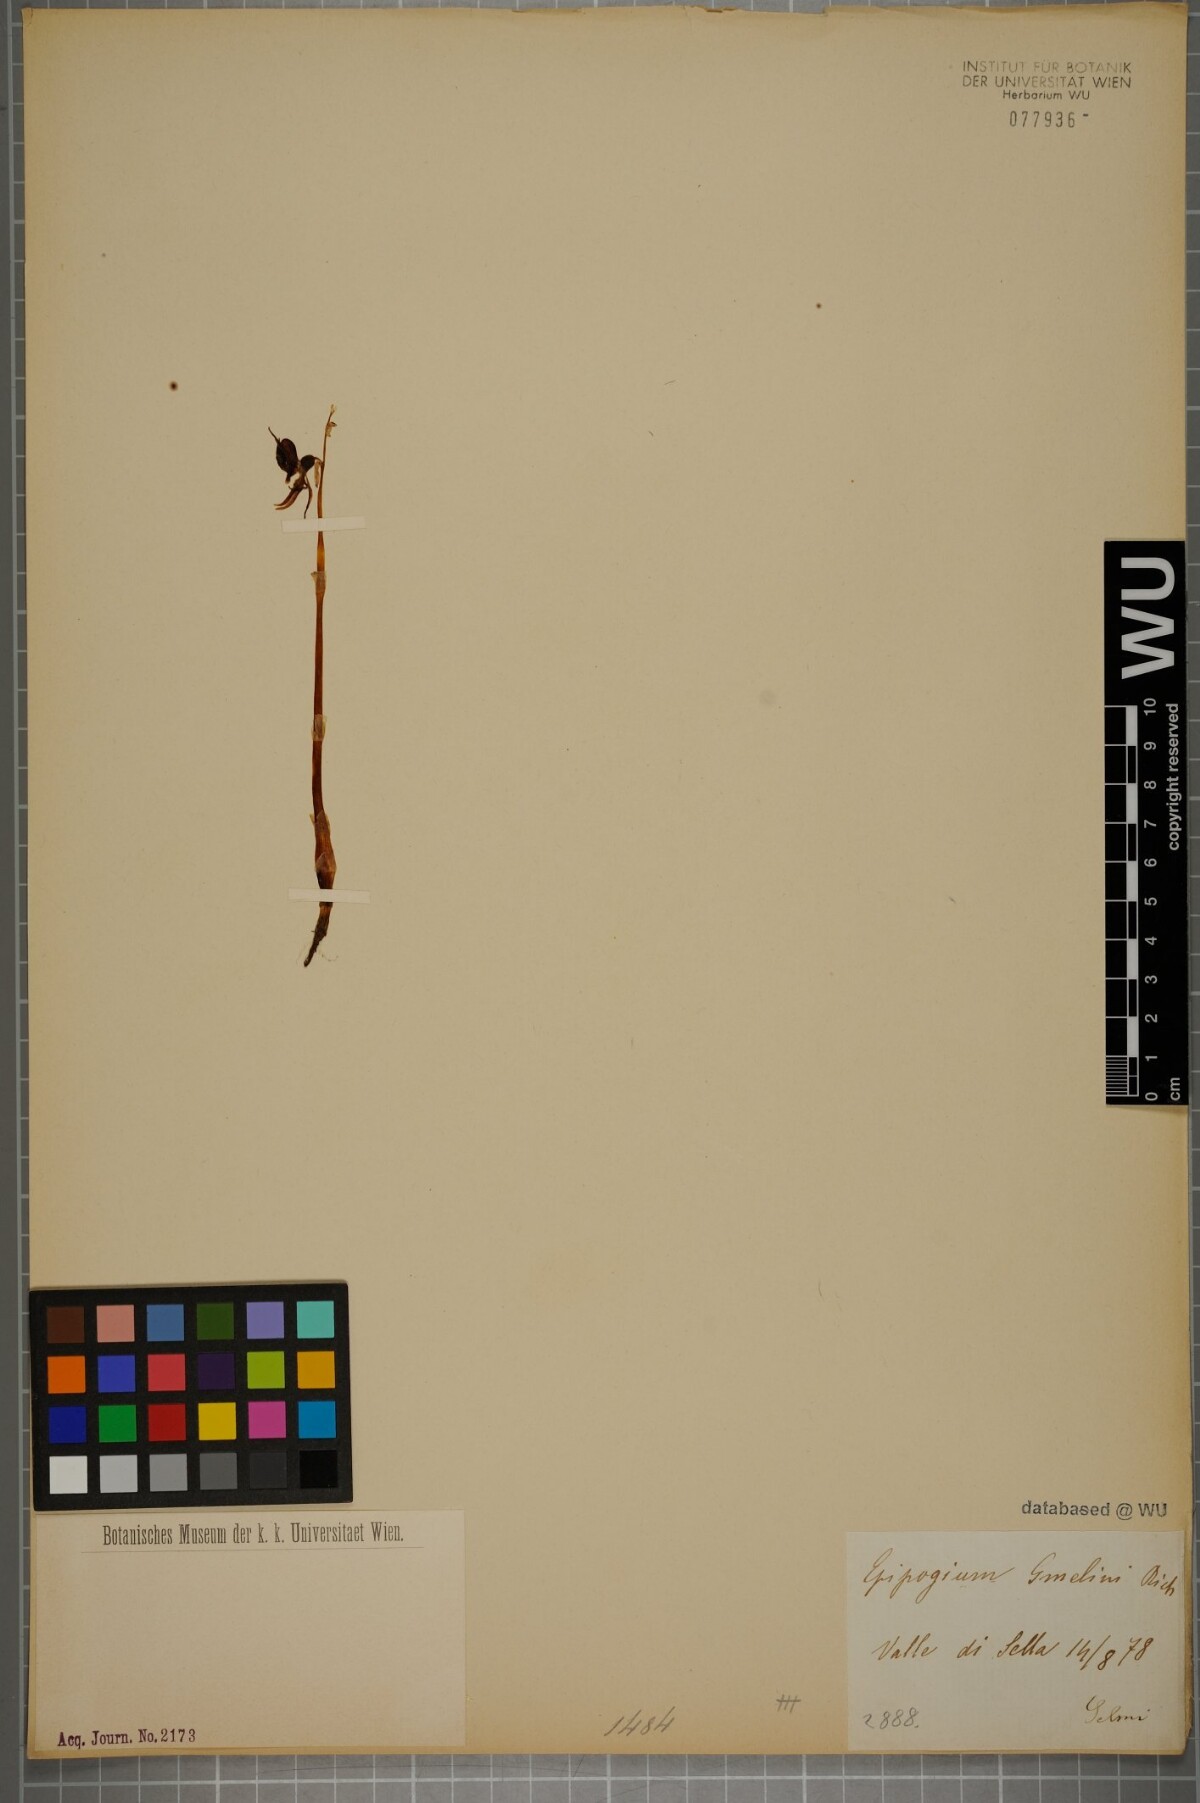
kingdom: Plantae
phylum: Tracheophyta
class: Liliopsida
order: Asparagales
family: Orchidaceae
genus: Epipogium
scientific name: Epipogium aphyllum
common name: Ghost orchid
